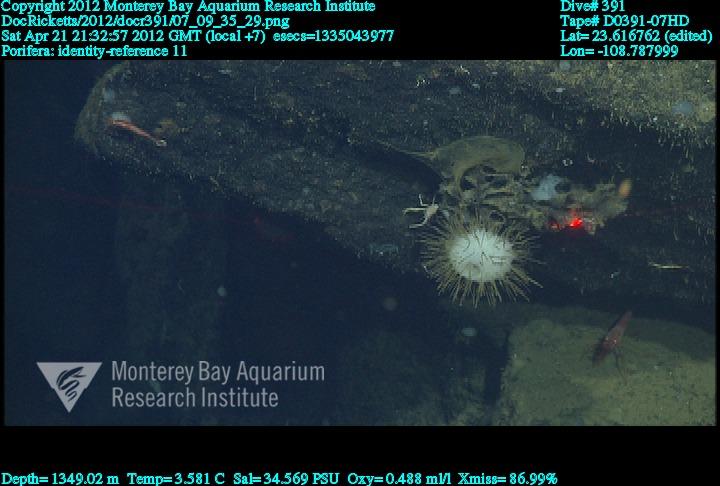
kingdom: Animalia
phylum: Porifera
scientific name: Porifera
